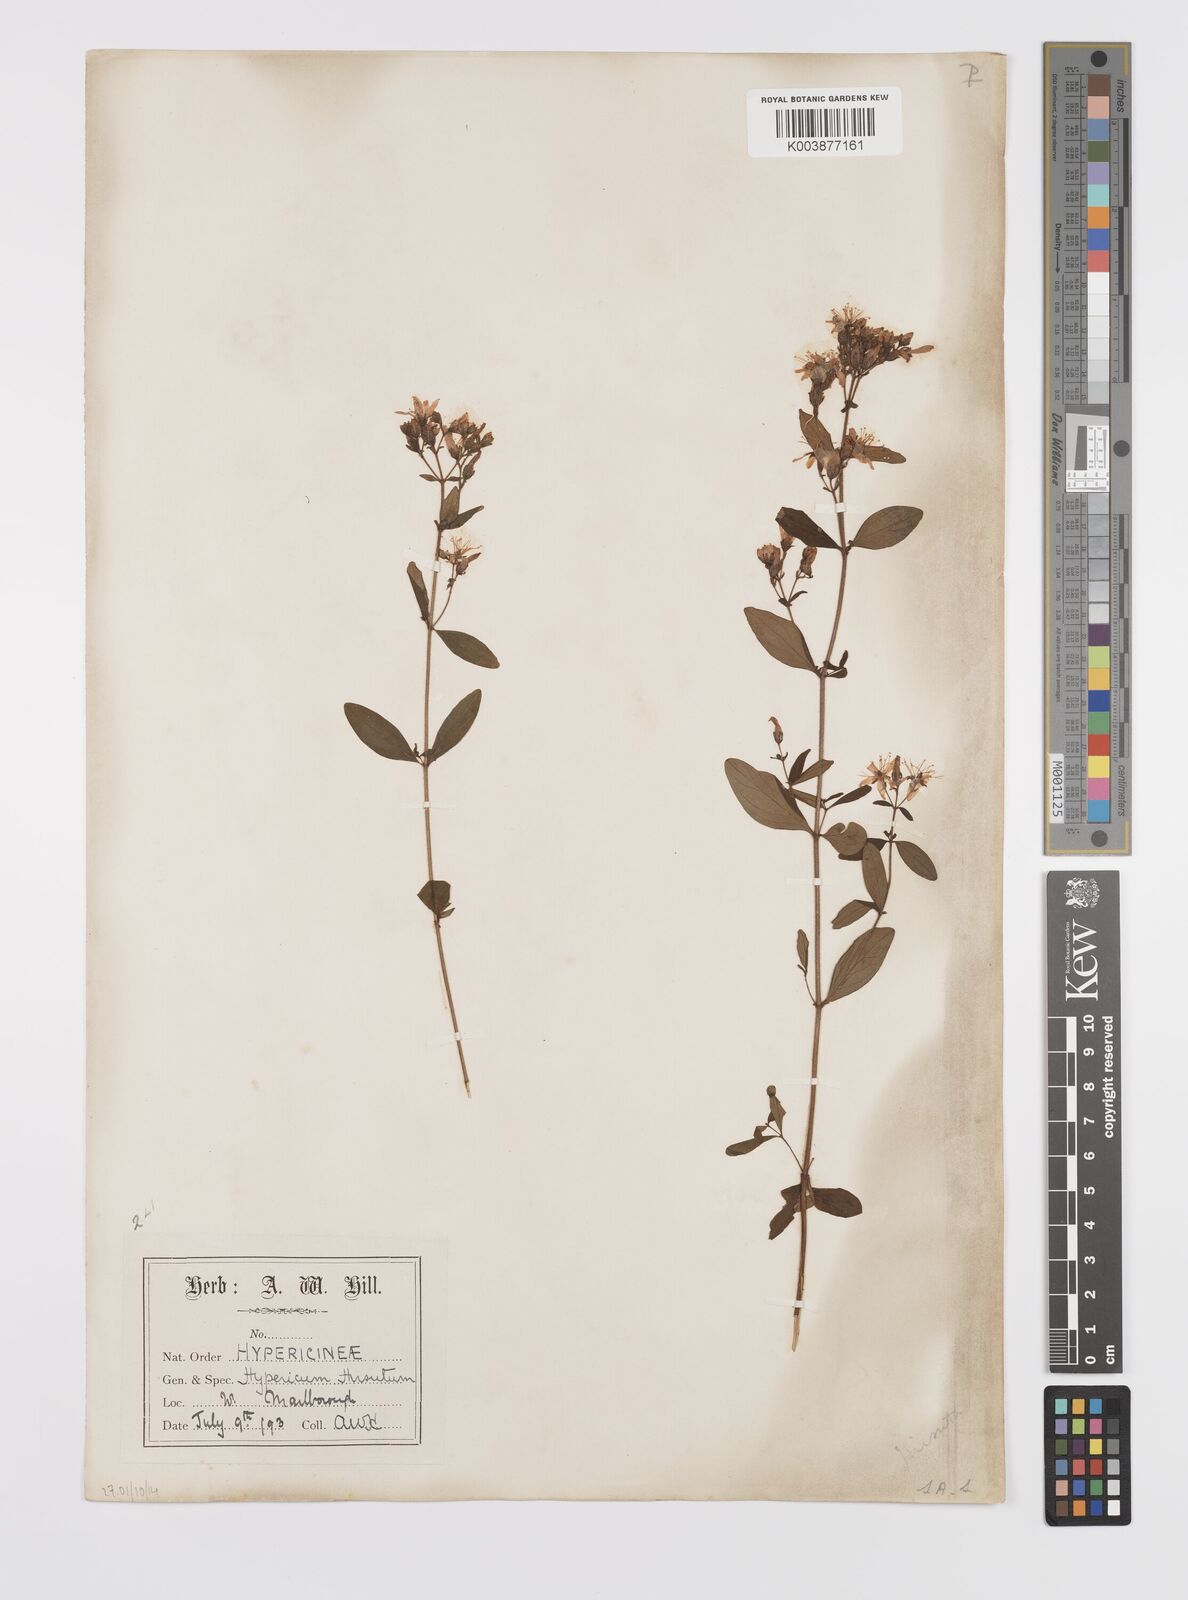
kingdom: Plantae
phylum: Tracheophyta
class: Magnoliopsida
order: Malpighiales
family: Hypericaceae
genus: Hypericum
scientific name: Hypericum hirsutum
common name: Hairy st. john's-wort
